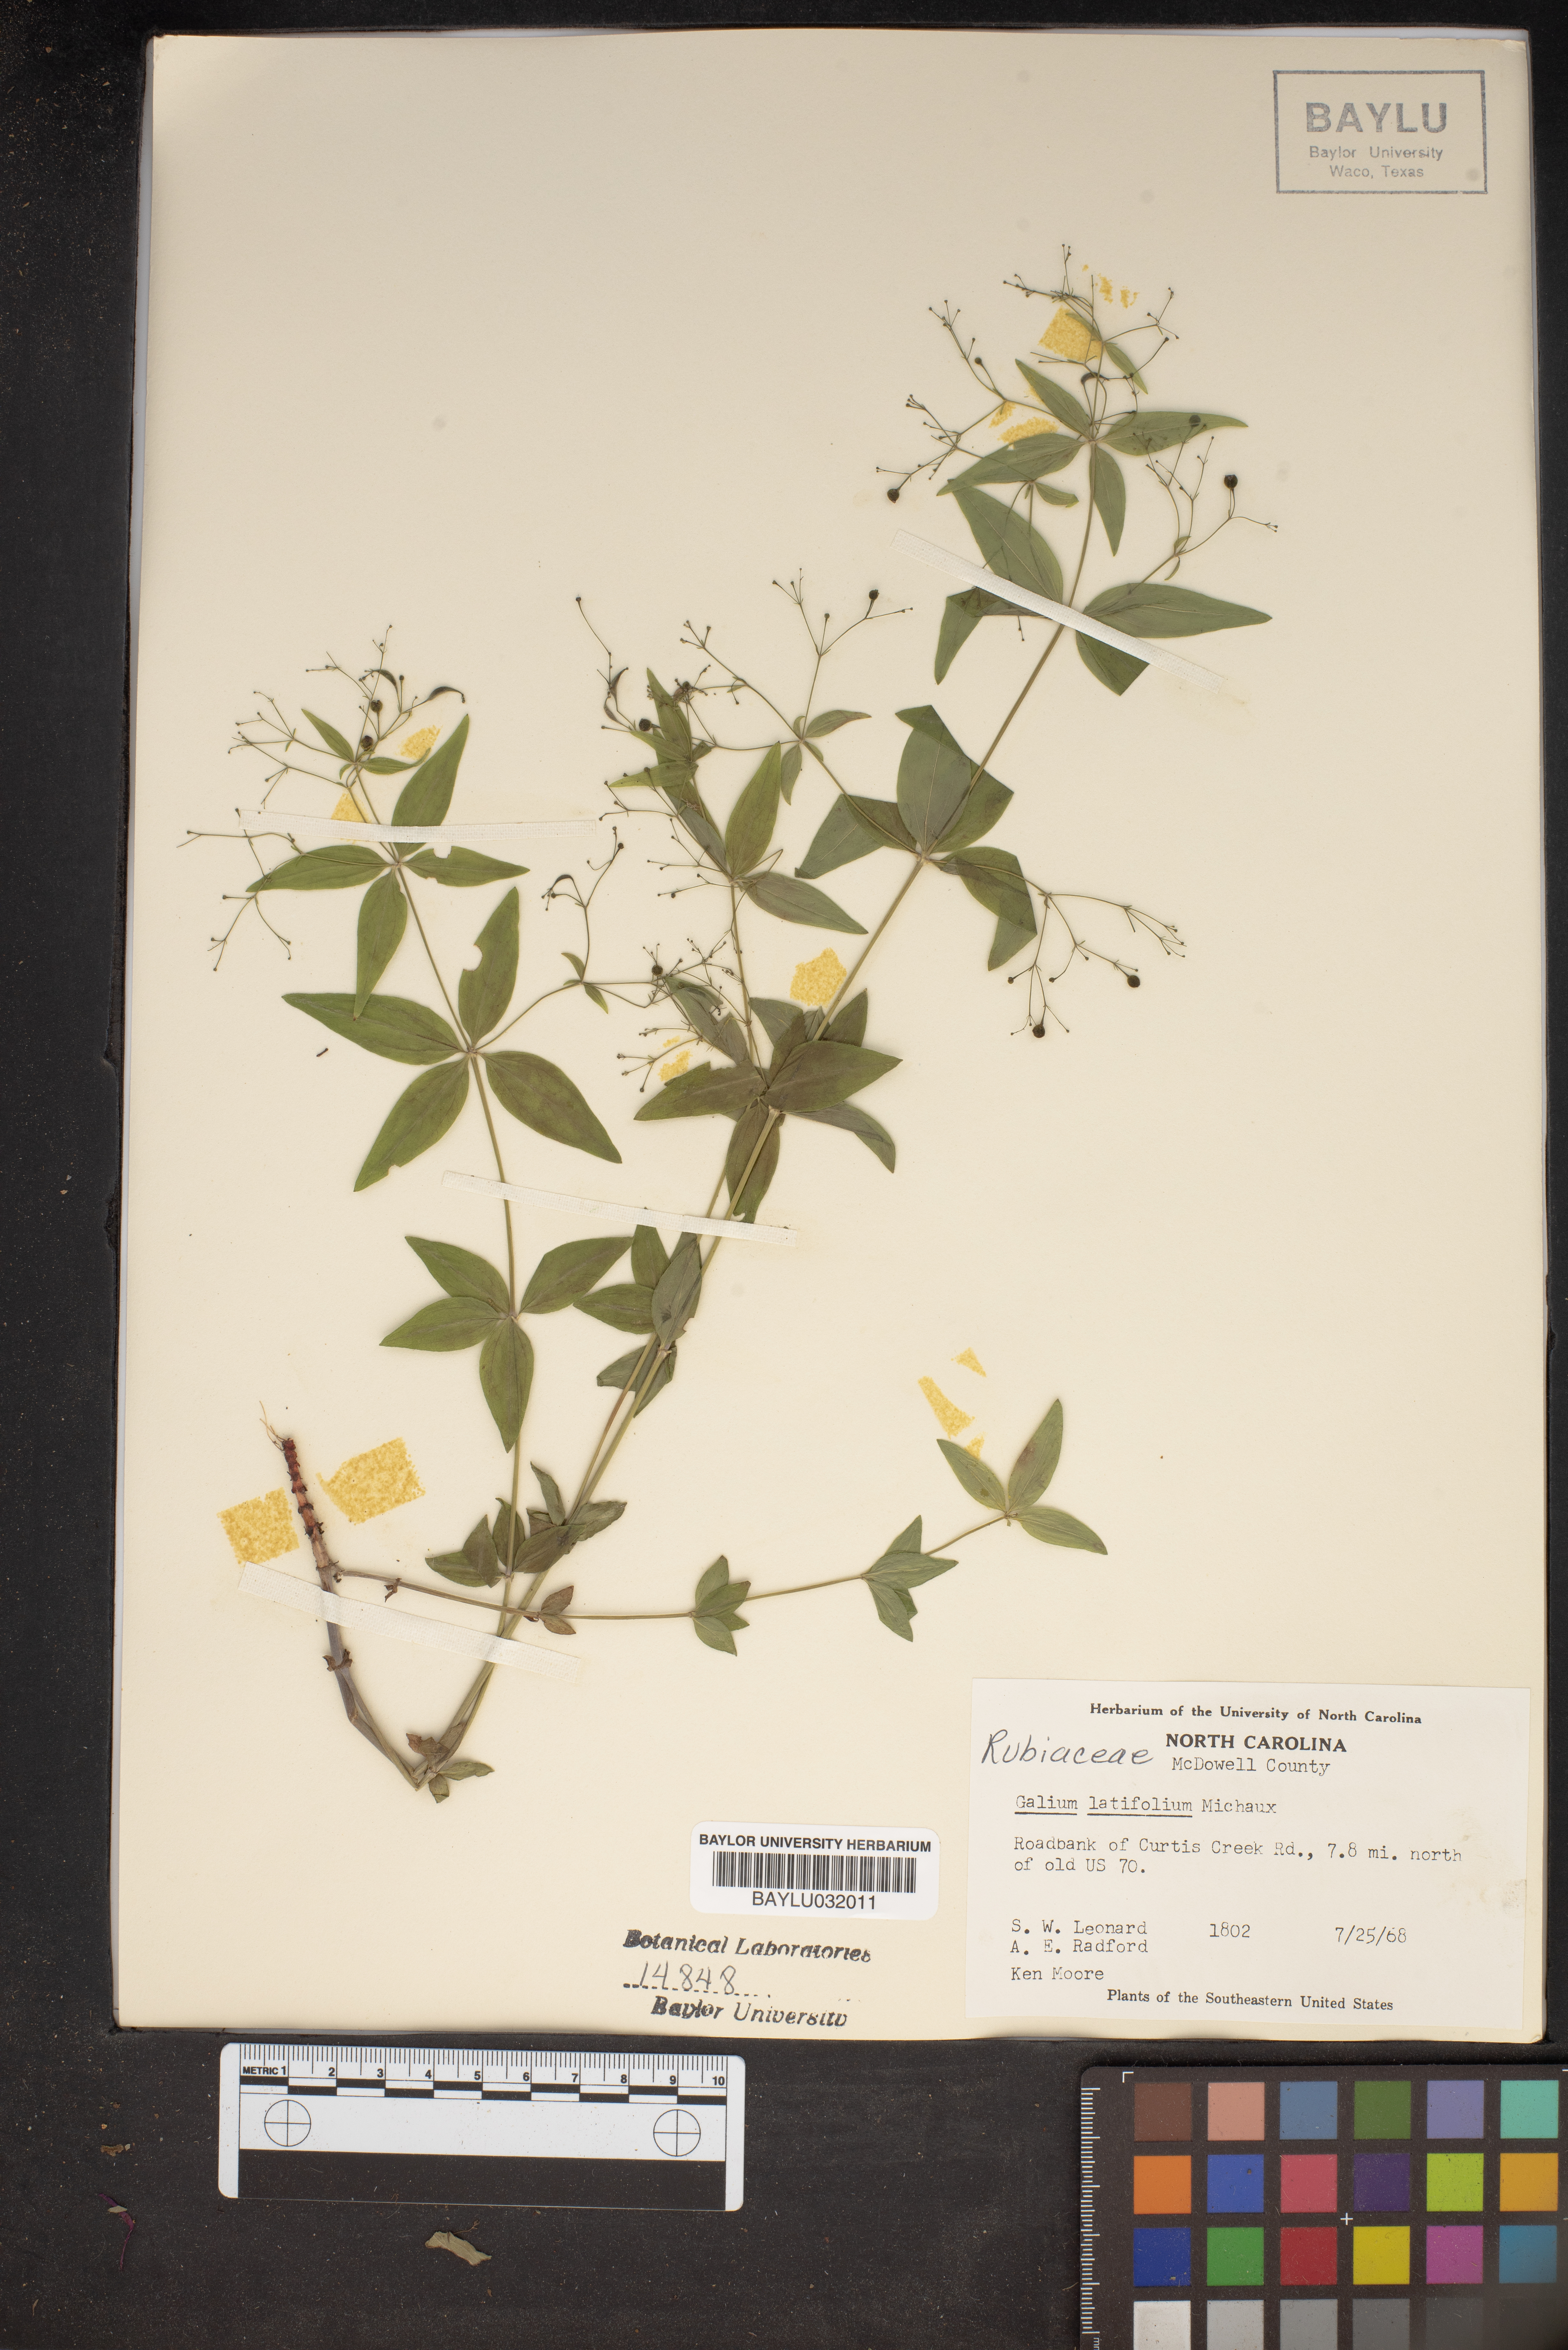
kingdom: Plantae
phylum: Tracheophyta
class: Magnoliopsida
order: Gentianales
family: Rubiaceae
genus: Galium
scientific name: Galium latifolium
